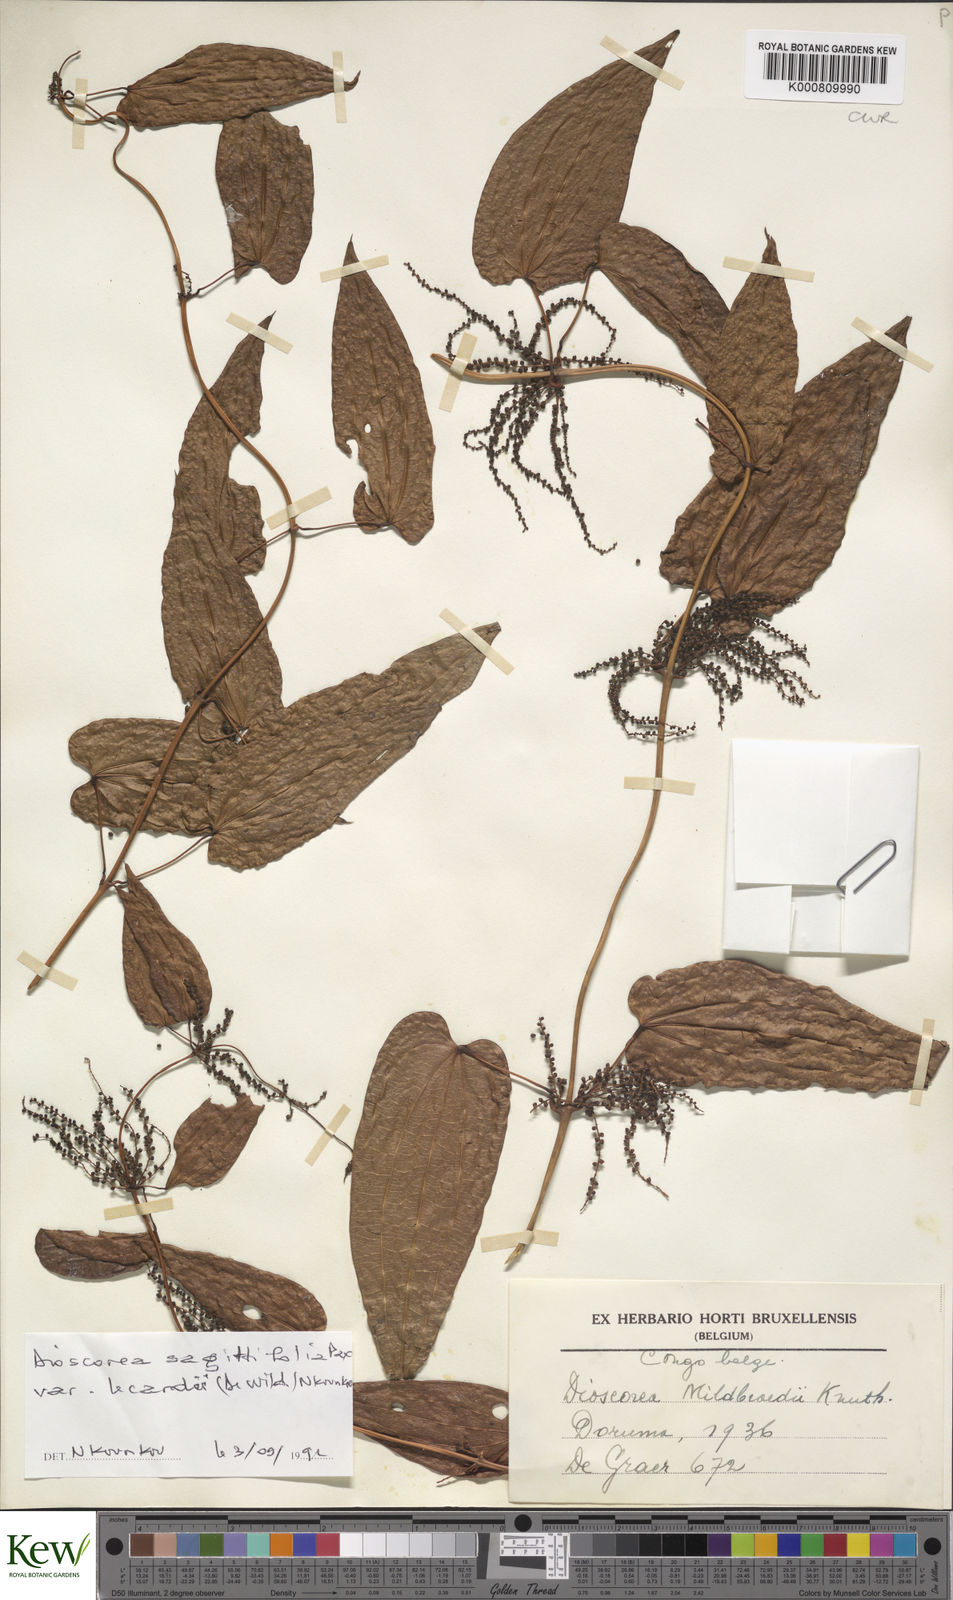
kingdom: Plantae
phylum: Tracheophyta
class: Liliopsida
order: Dioscoreales
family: Dioscoreaceae
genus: Dioscorea
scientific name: Dioscorea sagittifolia
